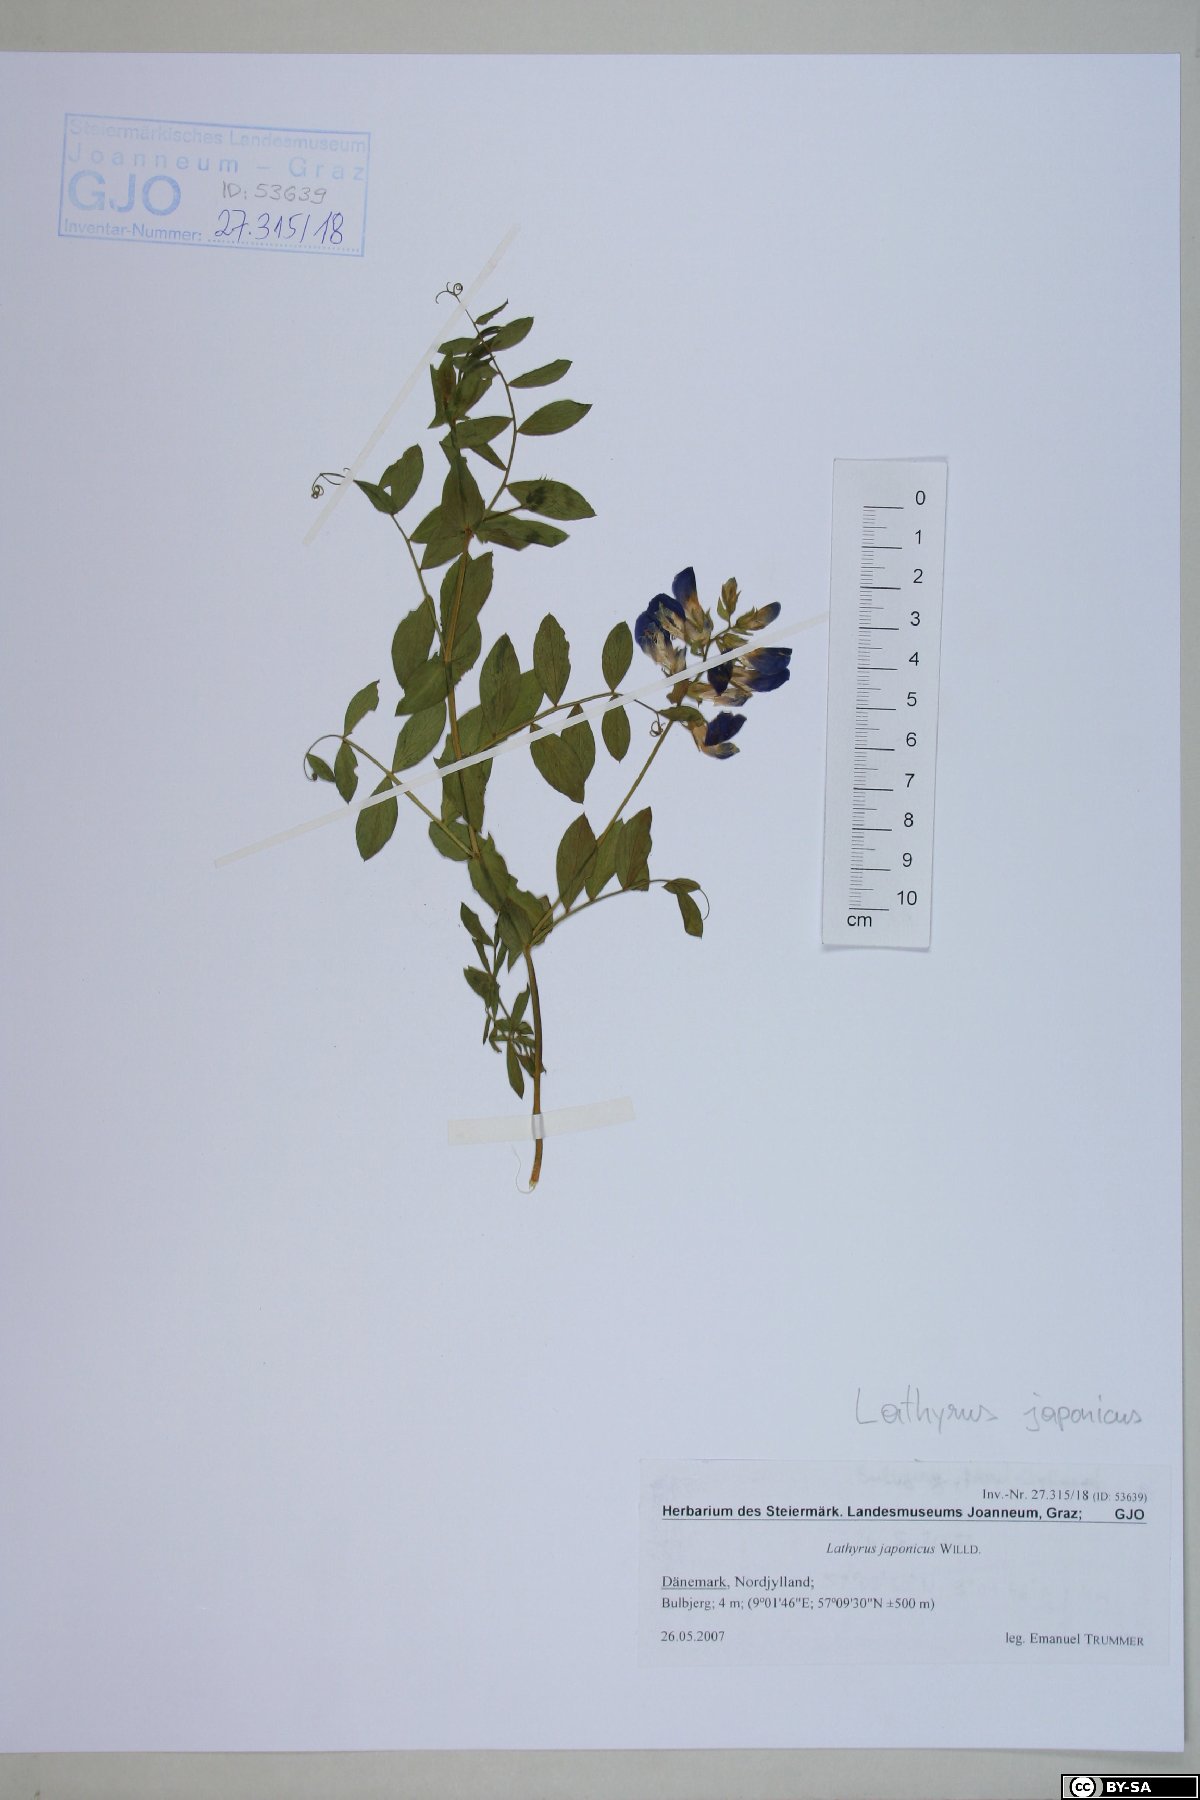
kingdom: Plantae
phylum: Tracheophyta
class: Magnoliopsida
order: Fabales
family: Fabaceae
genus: Lathyrus
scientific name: Lathyrus japonicus
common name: Sea pea
